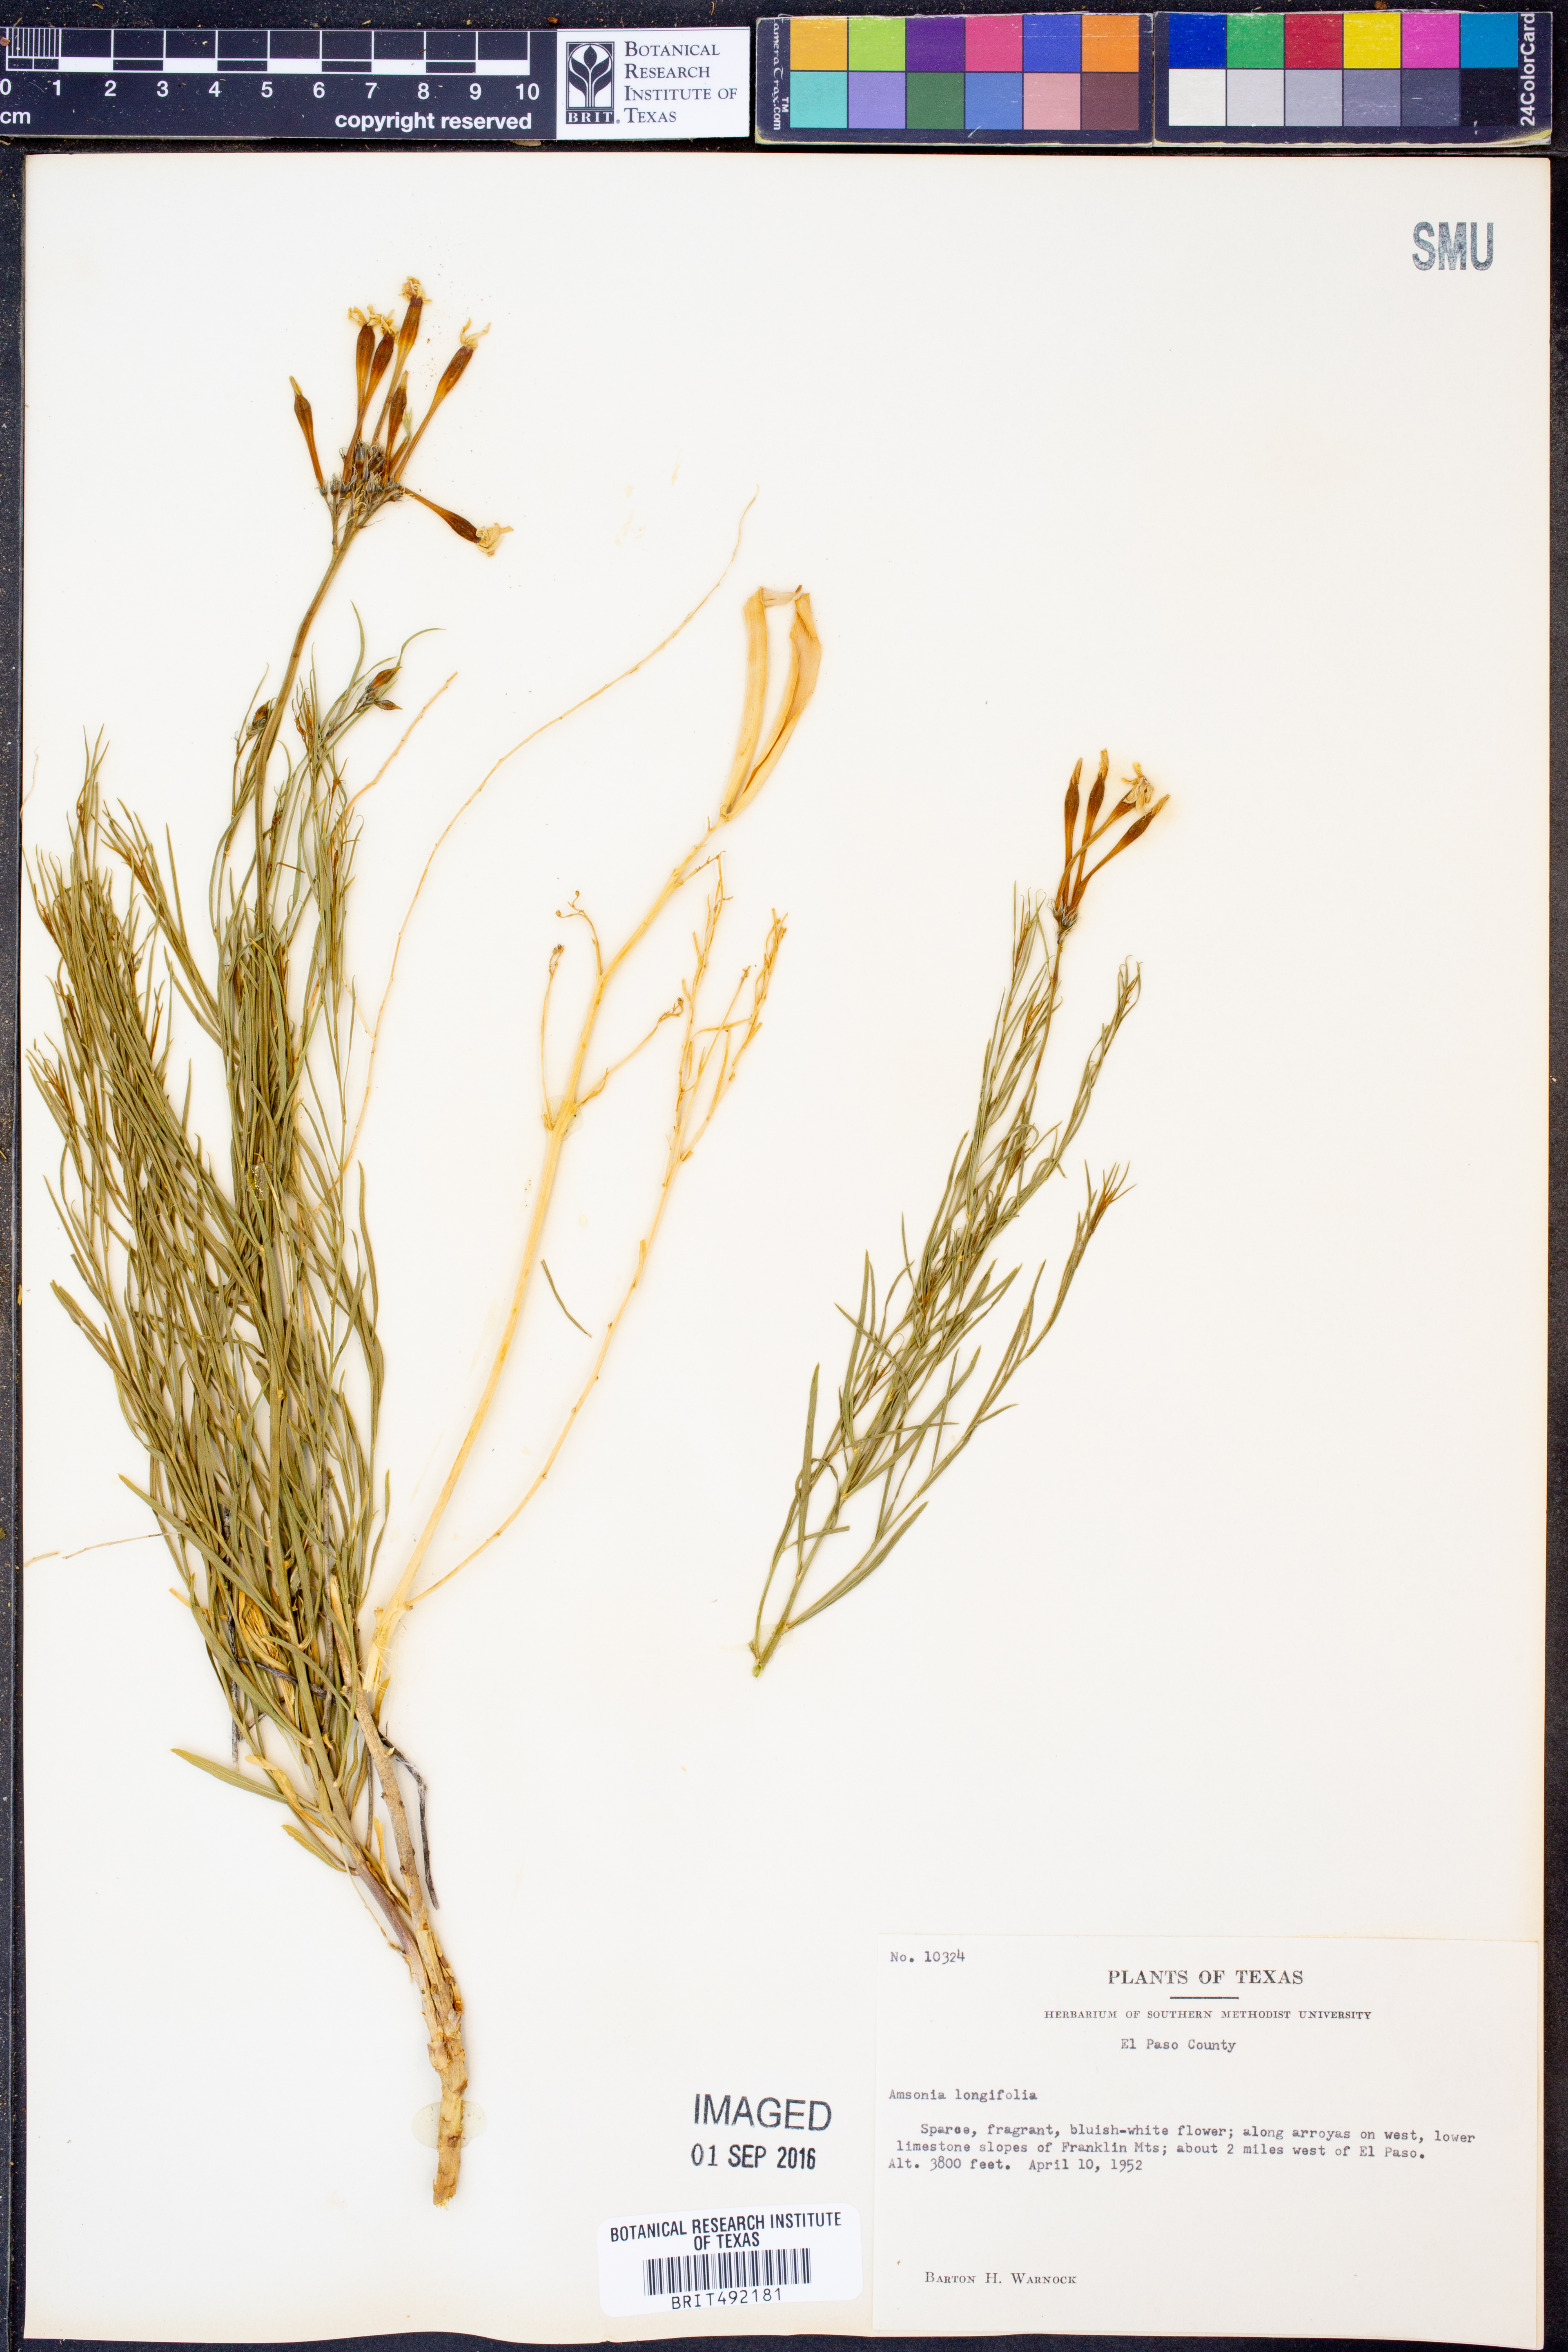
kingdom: Plantae
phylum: Tracheophyta
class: Magnoliopsida
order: Gentianales
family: Apocynaceae
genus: Amsonia
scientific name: Amsonia longiflora
